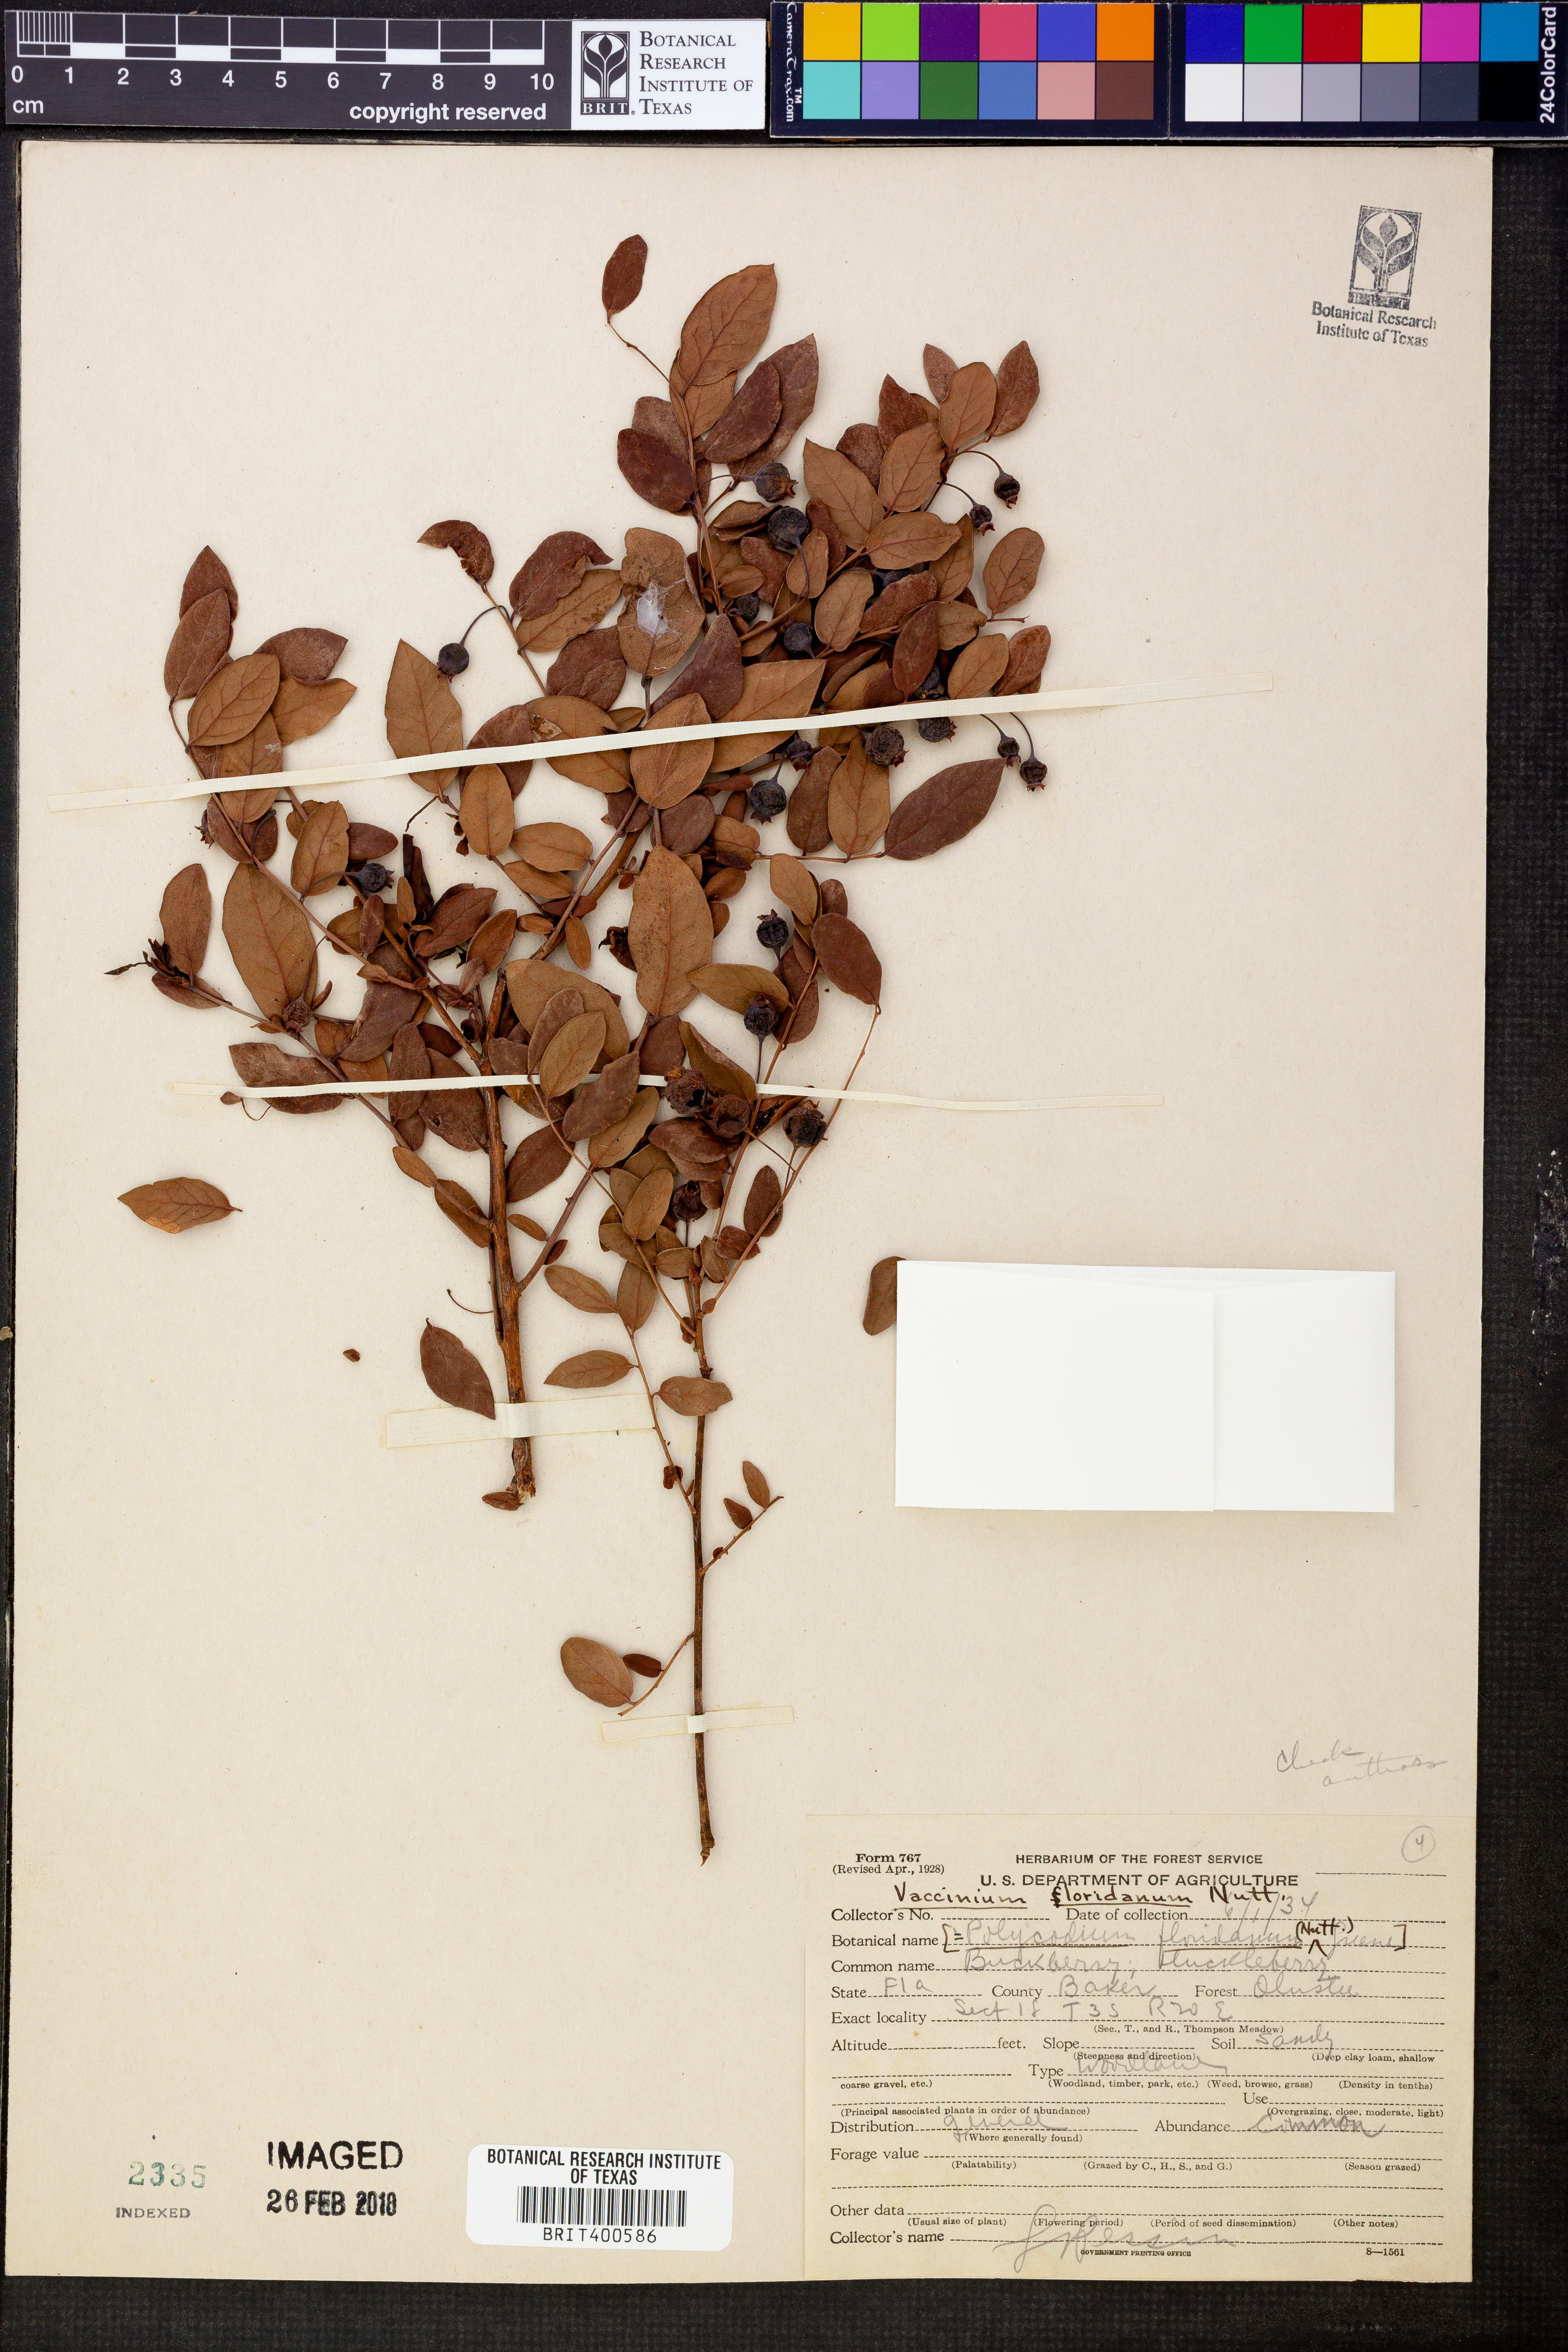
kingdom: Plantae
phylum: Tracheophyta
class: Magnoliopsida
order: Ericales
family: Ericaceae
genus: Vaccinium
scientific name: Vaccinium stamineum
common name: Deerberry
